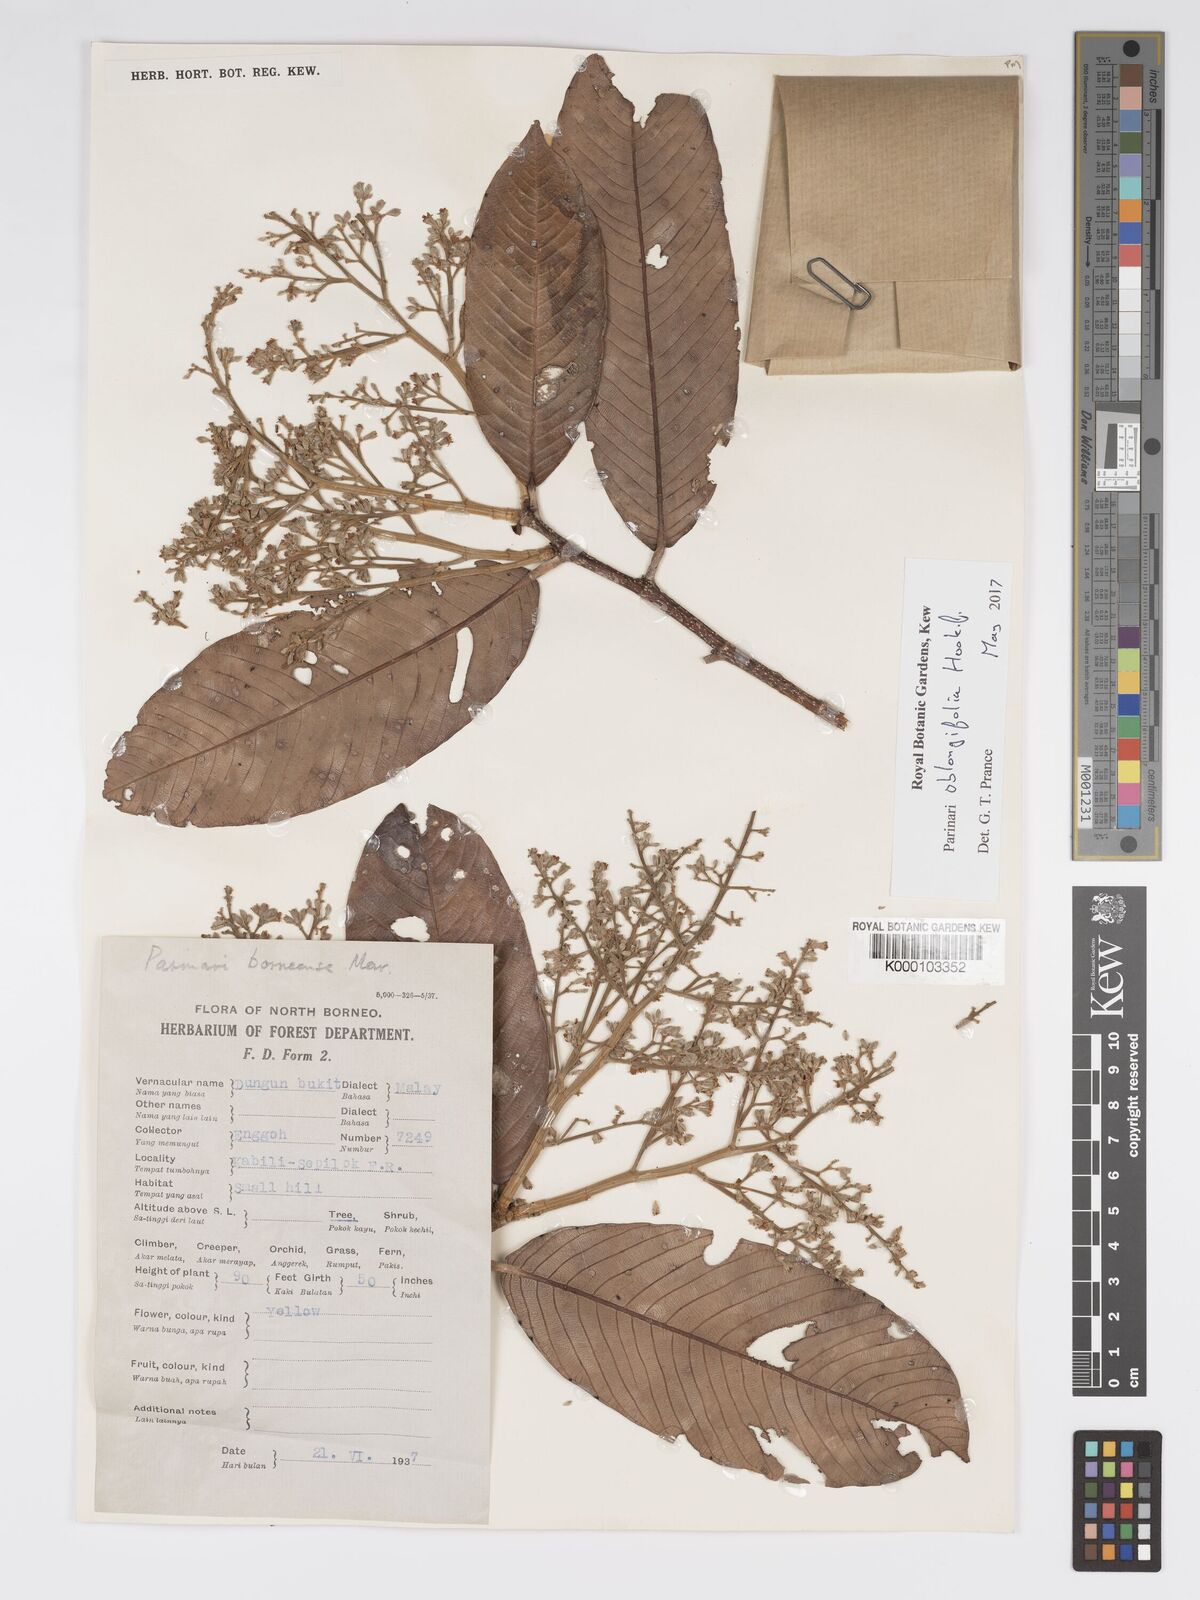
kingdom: Plantae
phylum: Tracheophyta
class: Magnoliopsida
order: Malpighiales
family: Chrysobalanaceae
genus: Parinari
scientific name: Parinari oblongifolia
